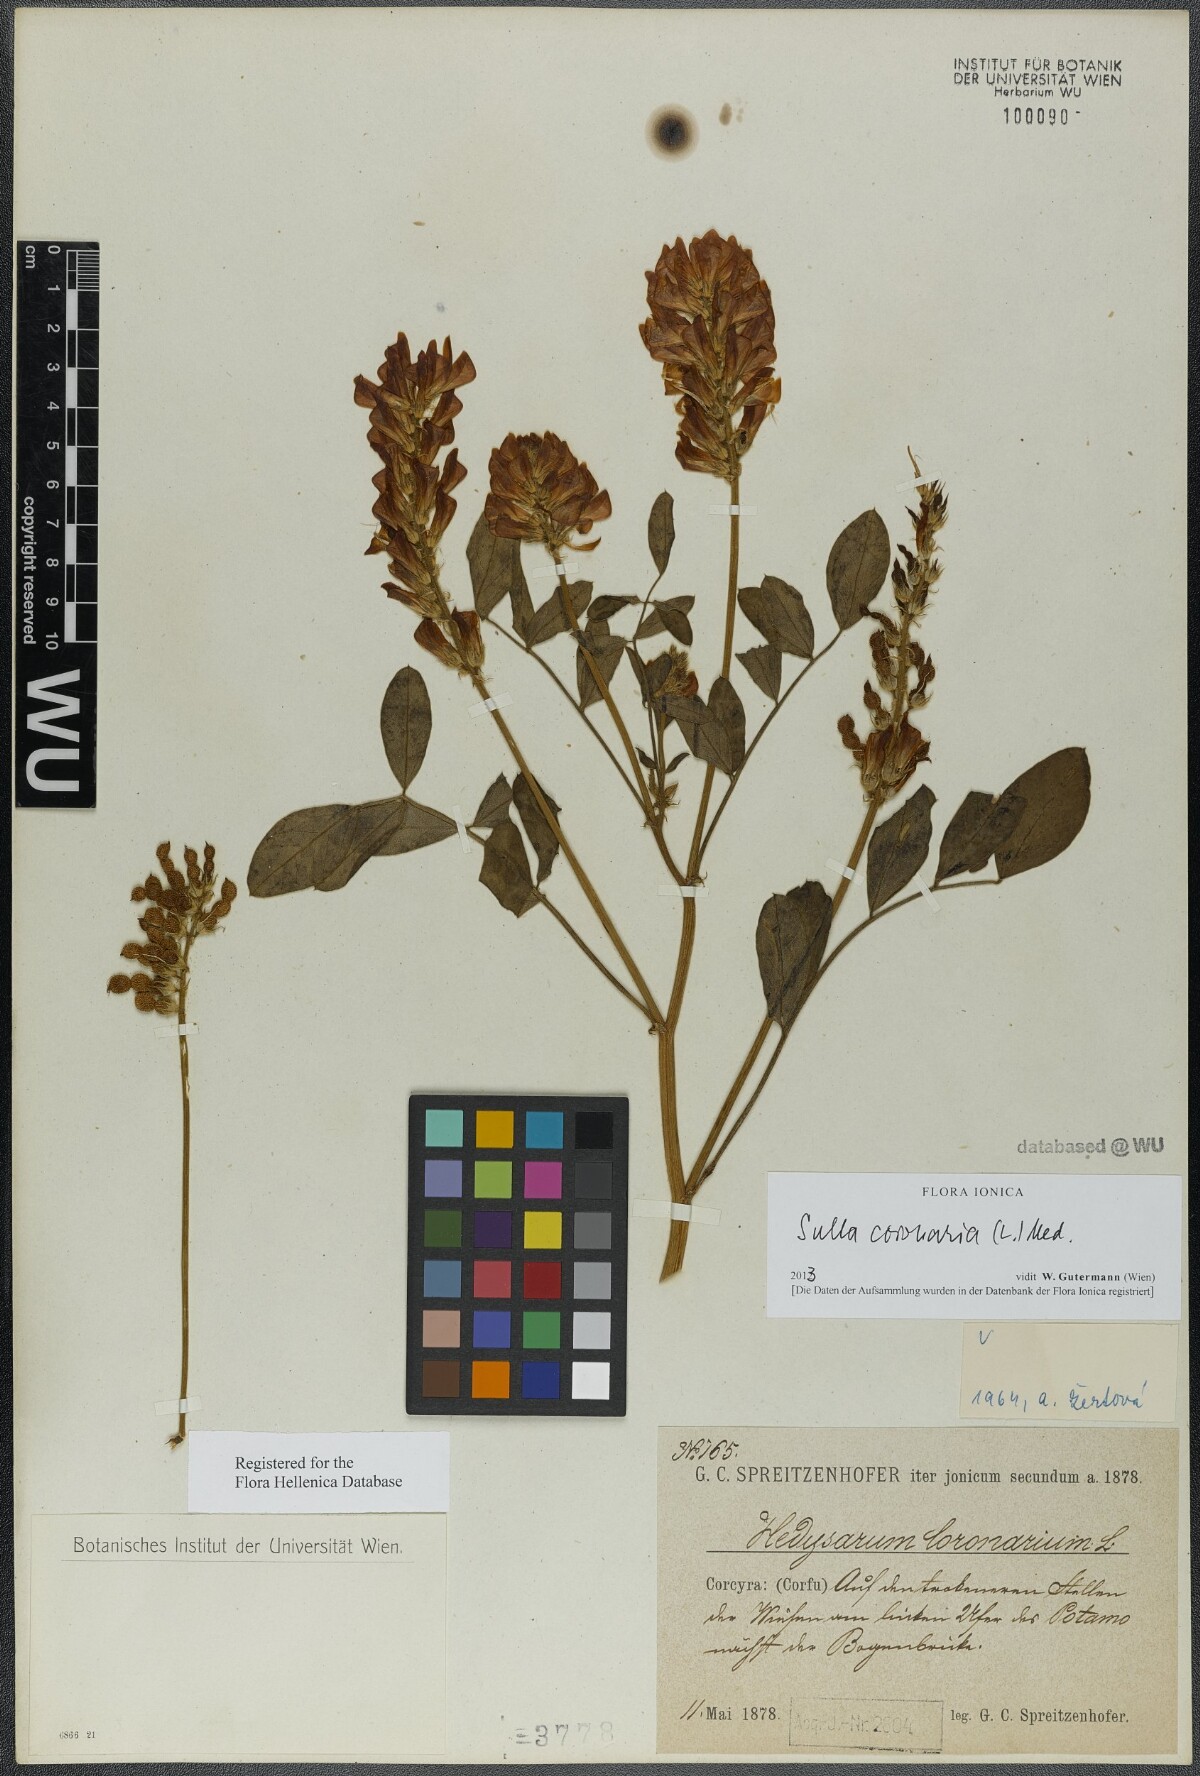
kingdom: Plantae
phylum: Tracheophyta
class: Magnoliopsida
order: Fabales
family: Fabaceae
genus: Sulla
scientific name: Sulla coronaria
